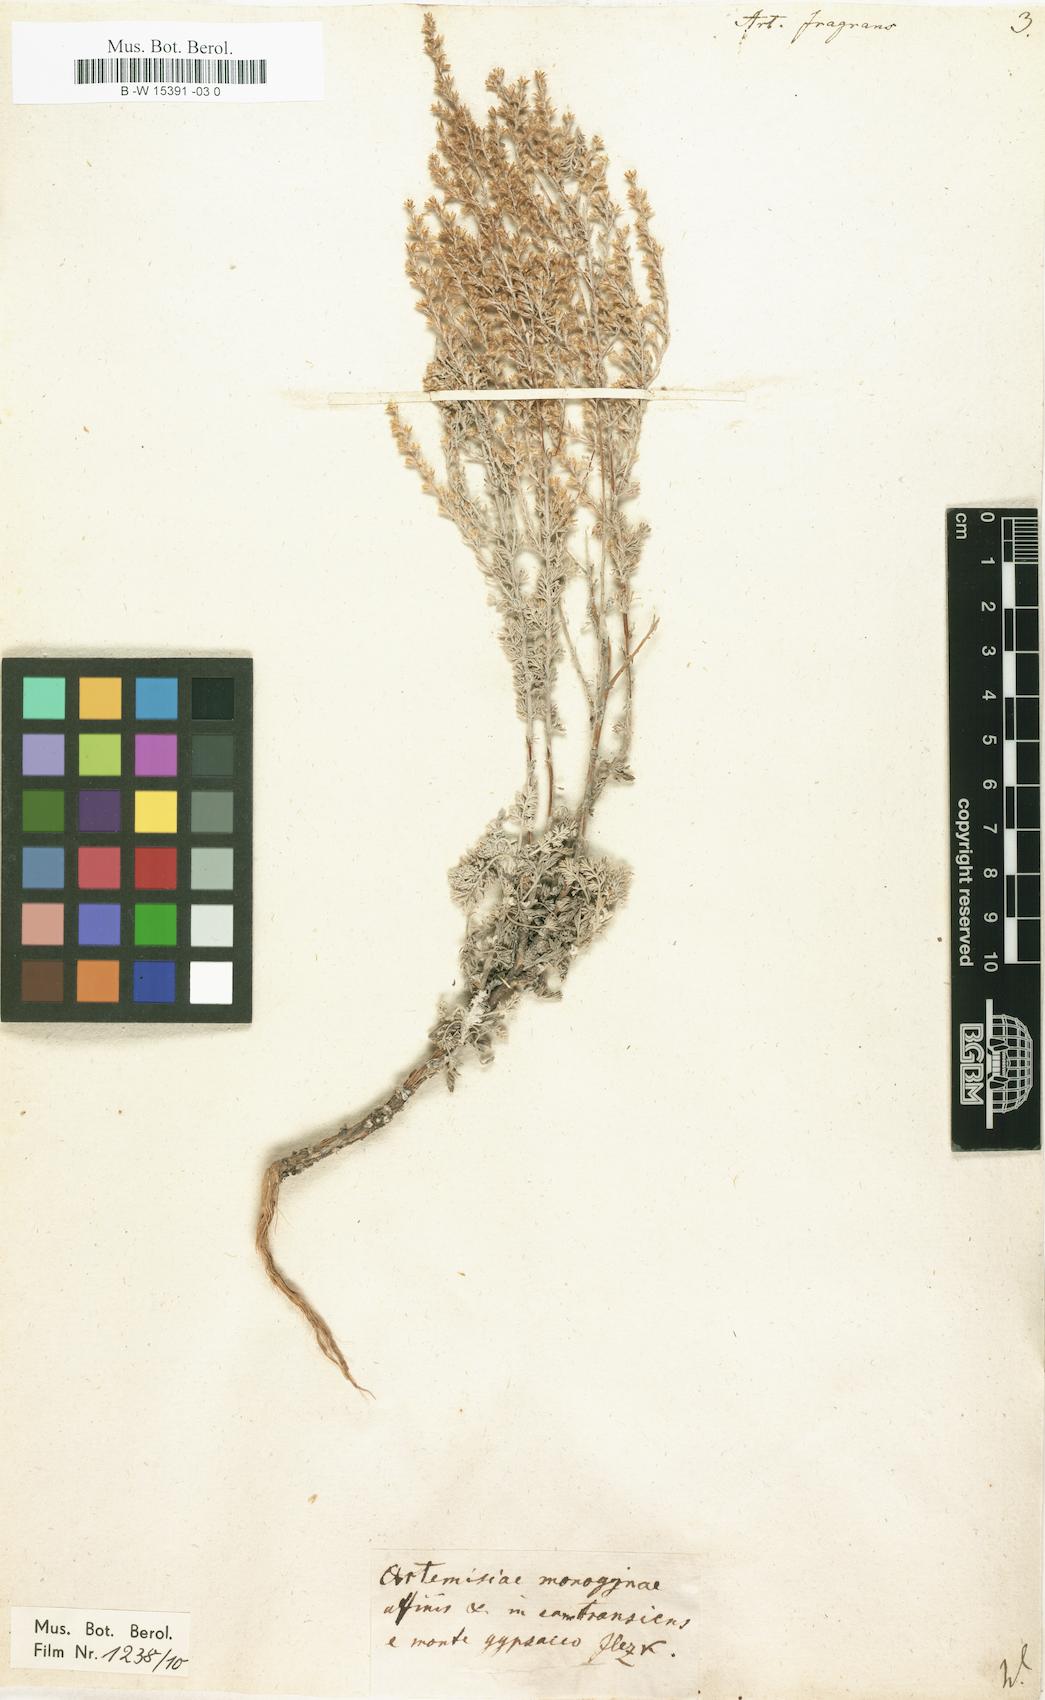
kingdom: Plantae
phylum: Tracheophyta
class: Magnoliopsida
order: Asterales
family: Asteraceae
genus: Artemisia
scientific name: Artemisia fragrans
